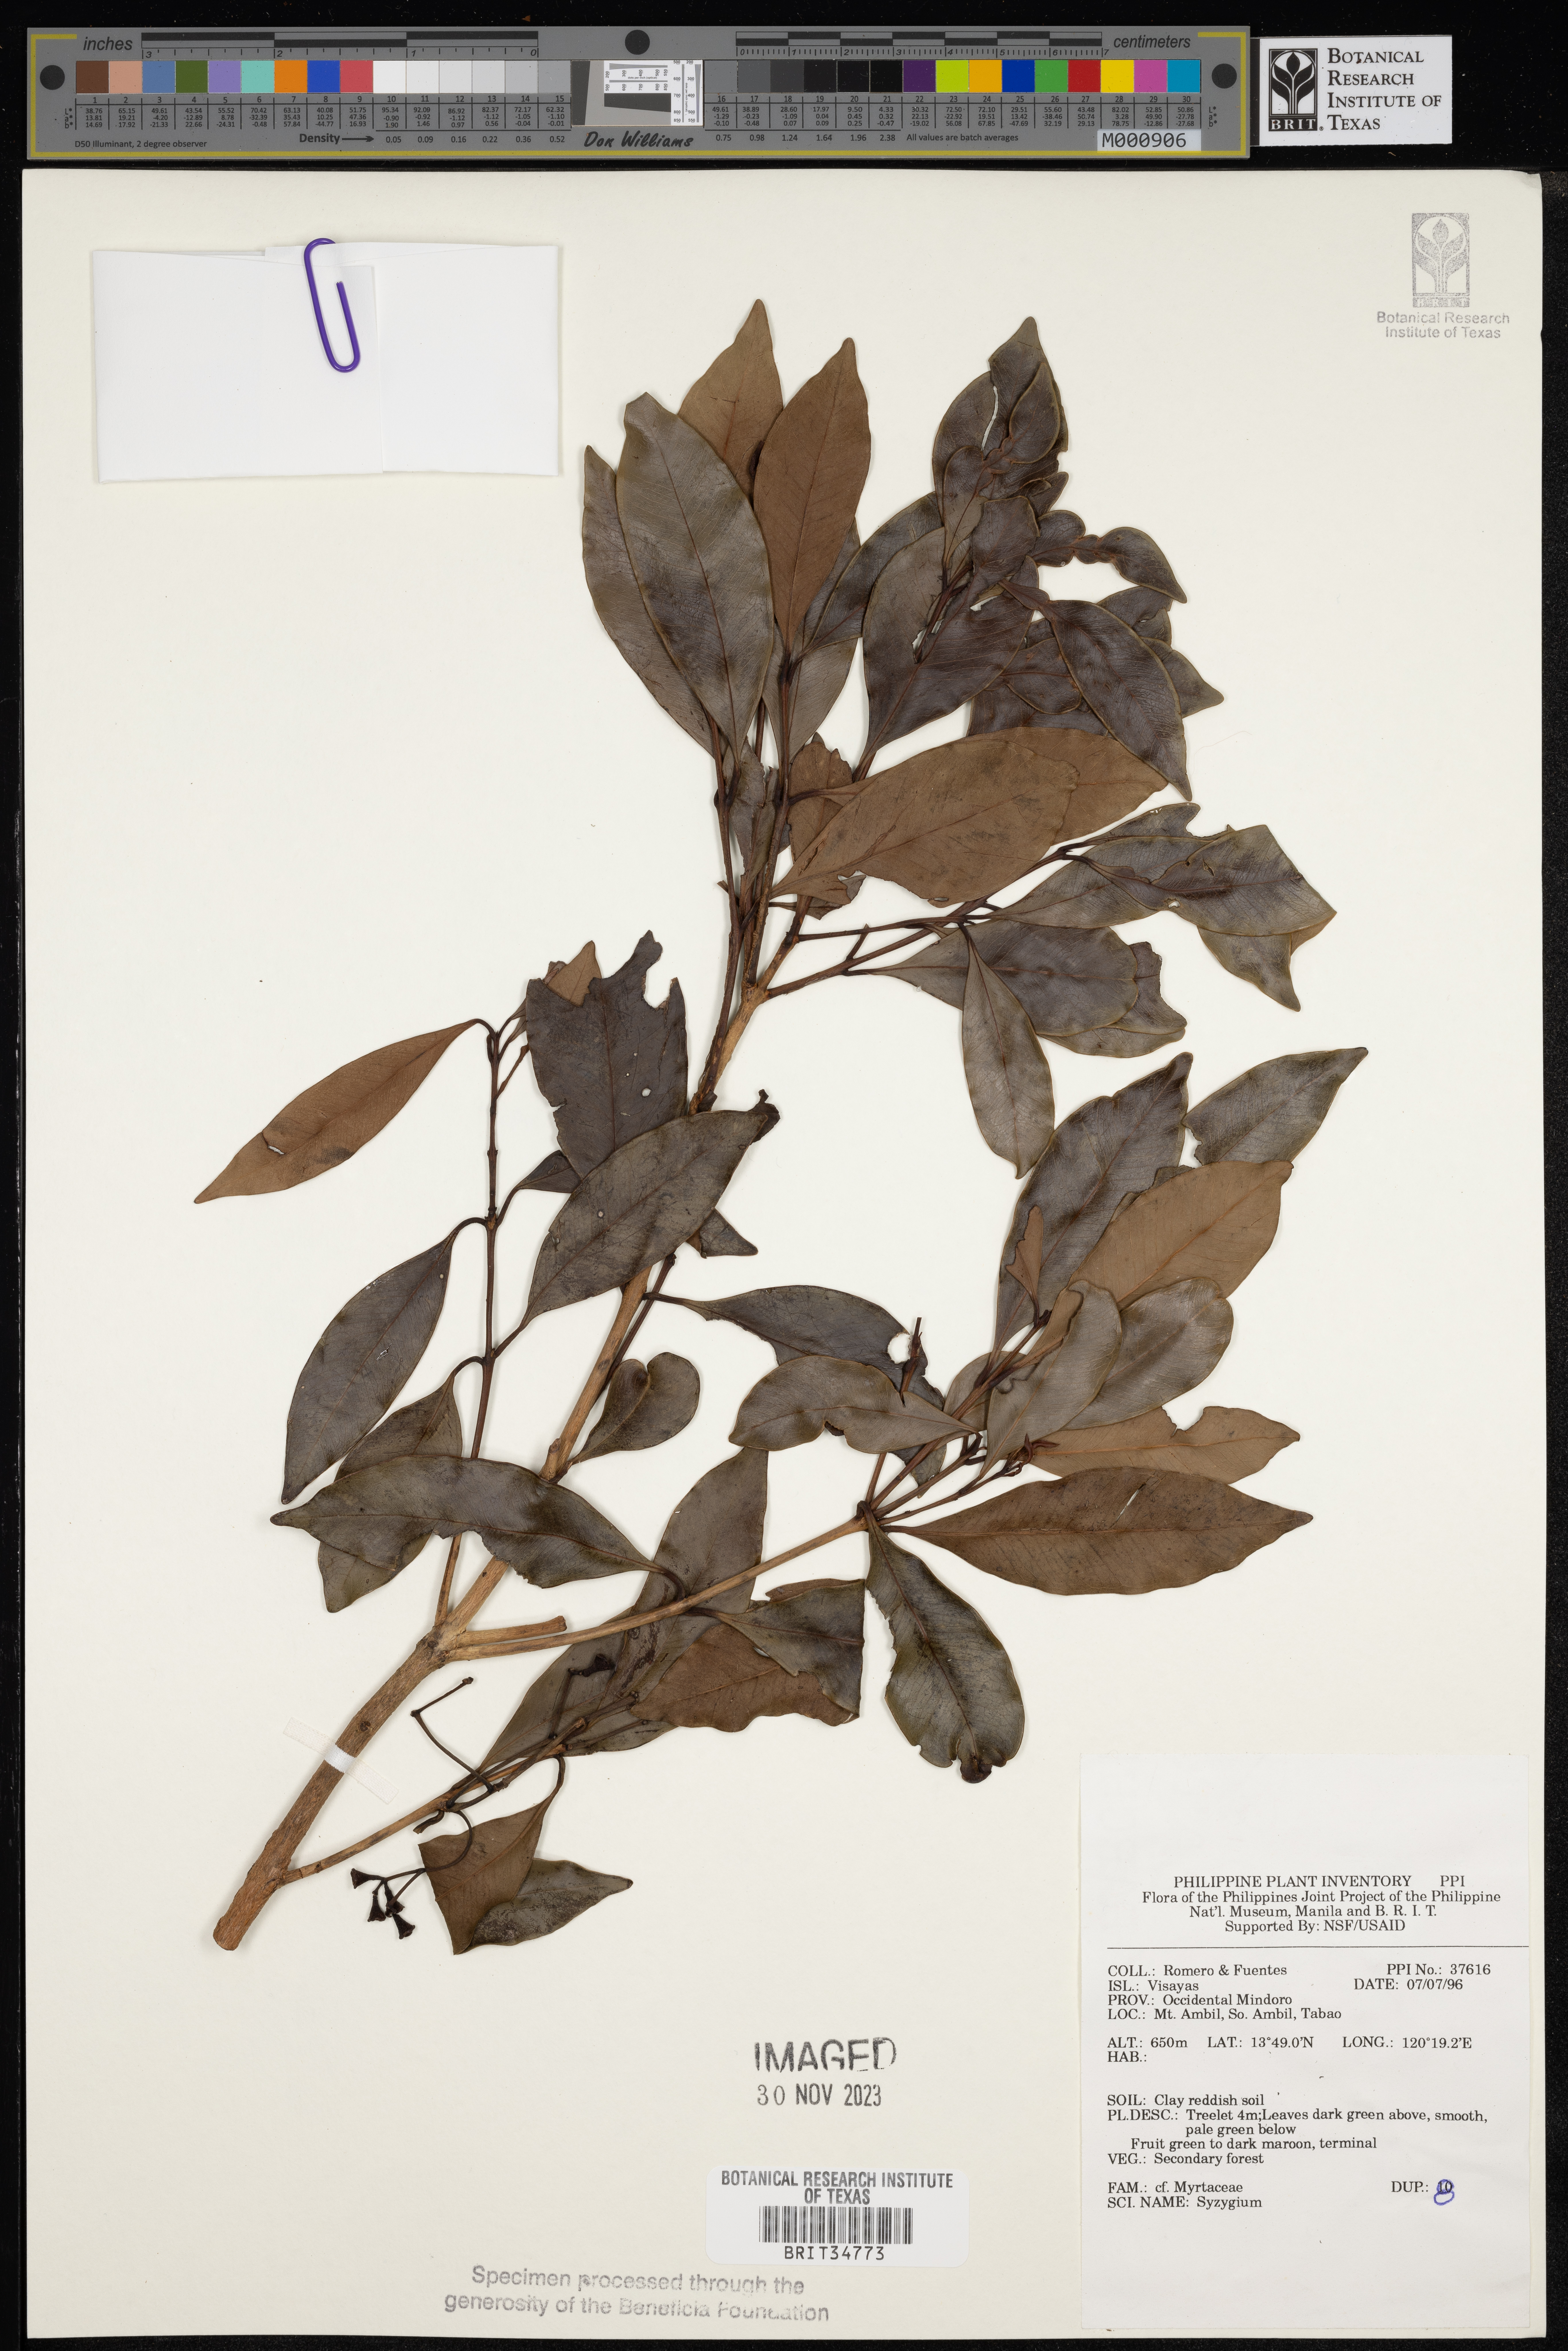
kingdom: Plantae
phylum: Tracheophyta
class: Magnoliopsida
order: Myrtales
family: Myrtaceae
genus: Syzygium
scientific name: Syzygium
